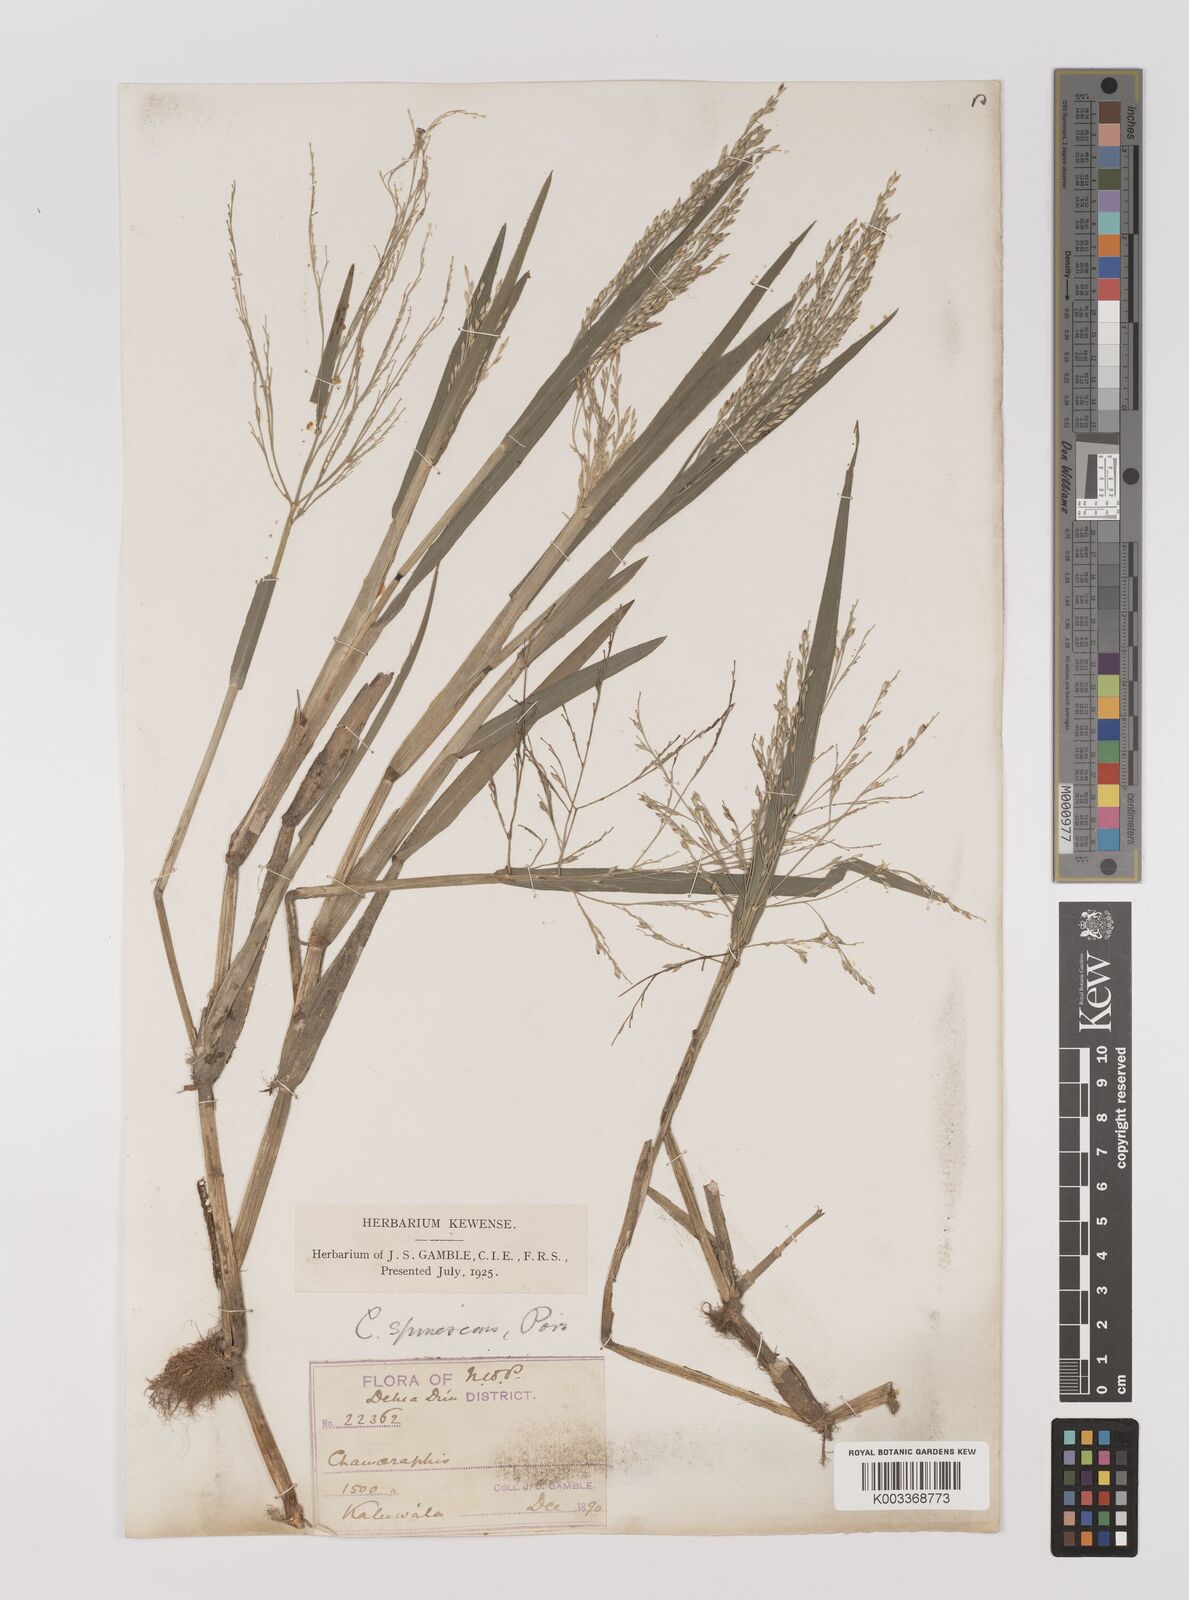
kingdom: Plantae
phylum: Tracheophyta
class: Liliopsida
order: Poales
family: Poaceae
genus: Louisiella
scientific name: Louisiella paludosa
